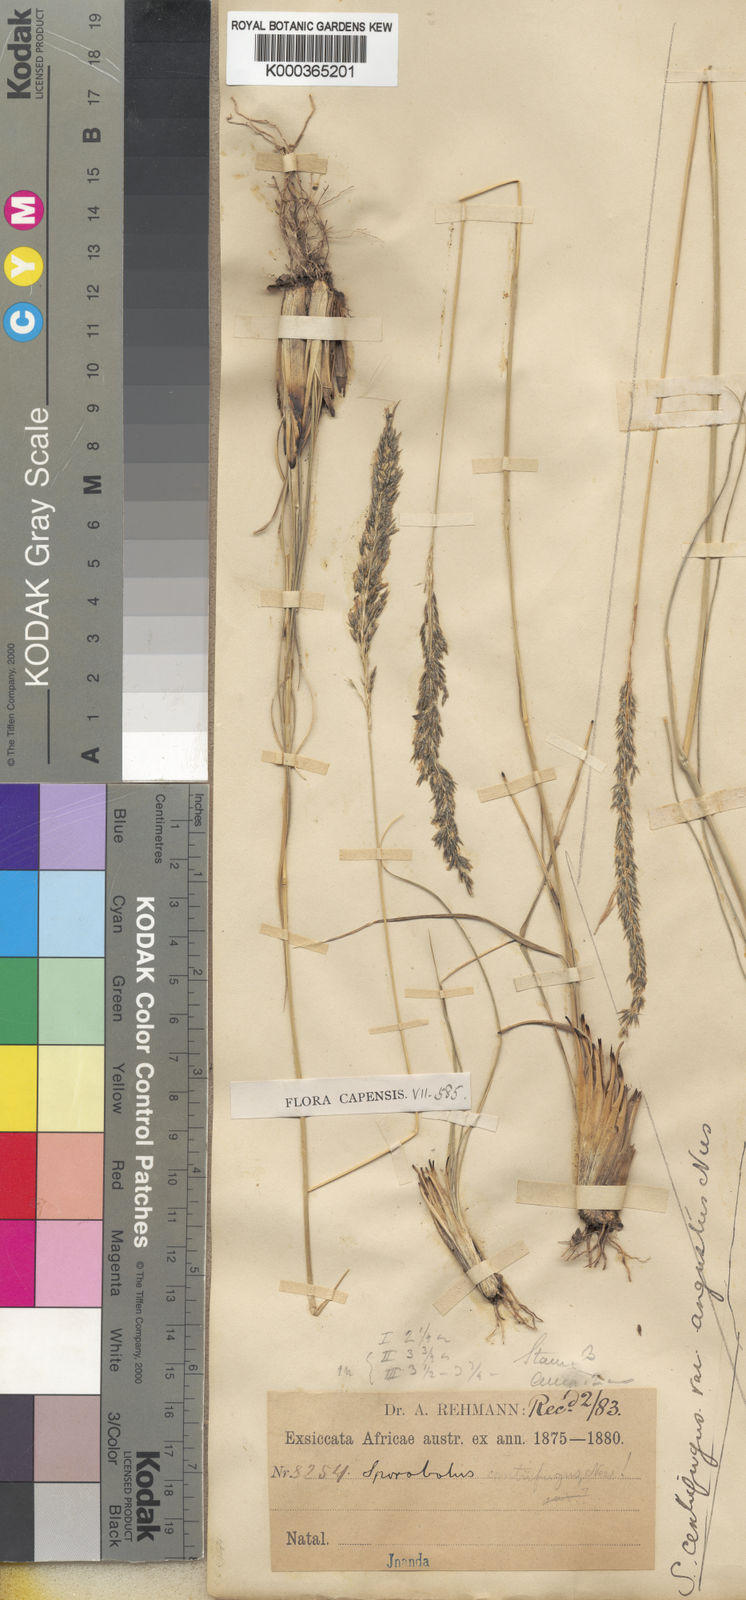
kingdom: Plantae
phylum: Tracheophyta
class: Liliopsida
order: Poales
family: Poaceae
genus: Sporobolus
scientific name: Sporobolus rigidifolius
